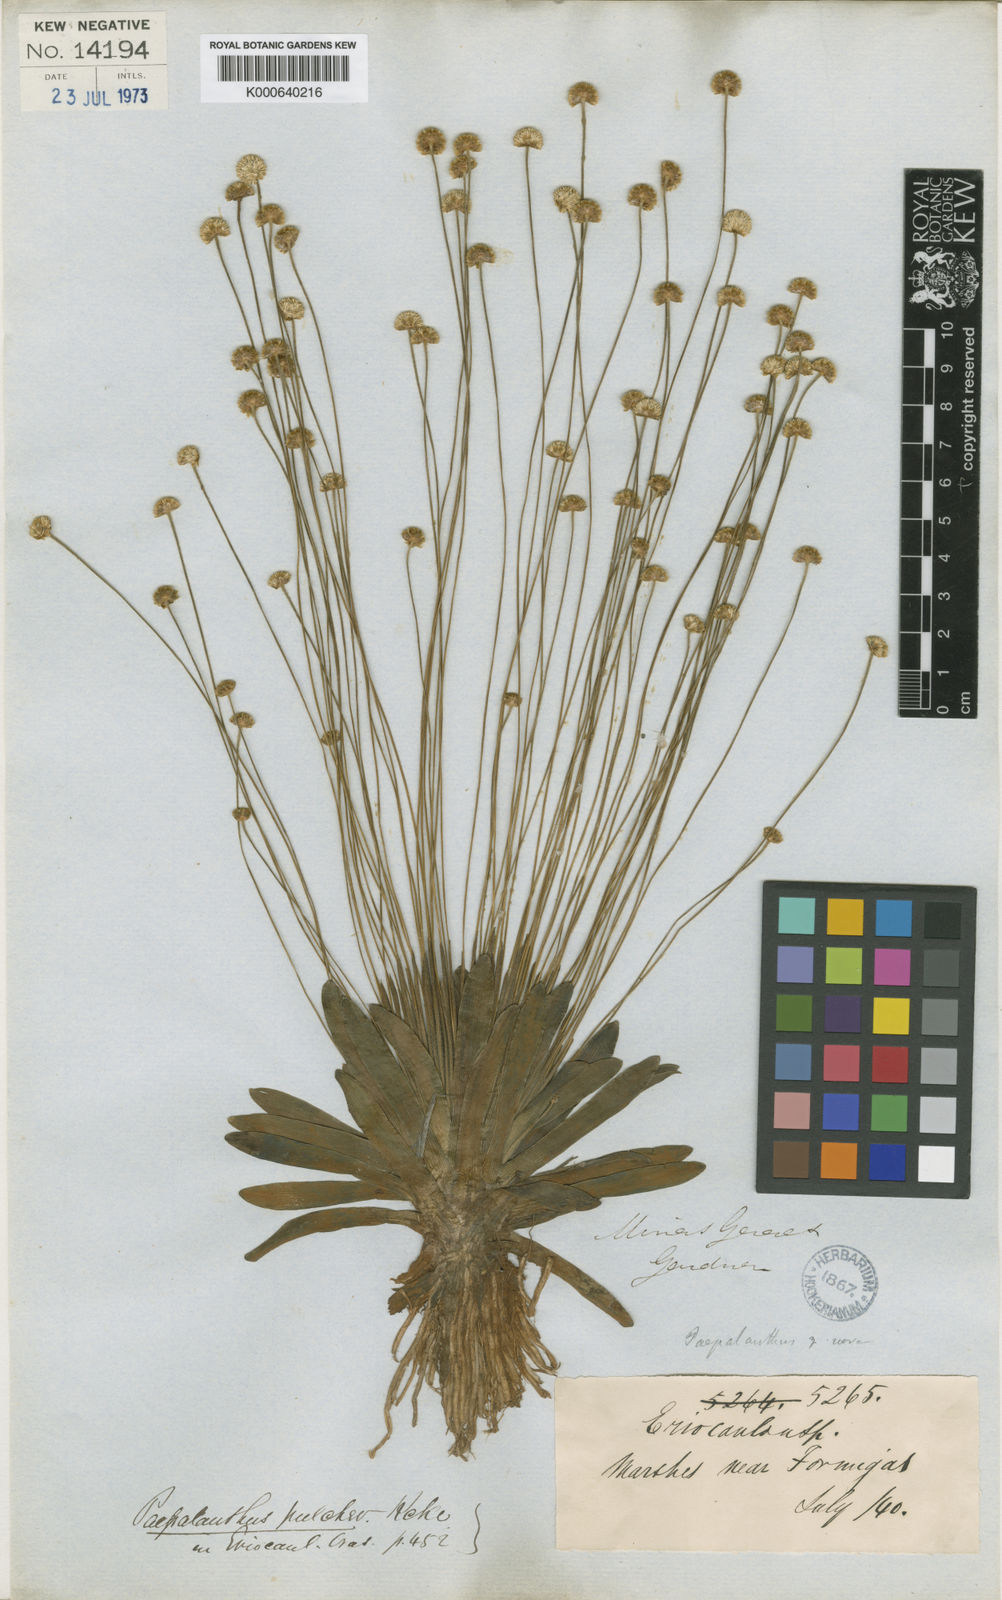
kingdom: Plantae
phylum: Tracheophyta
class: Liliopsida
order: Poales
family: Eriocaulaceae
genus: Syngonanthus
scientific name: Syngonanthus
